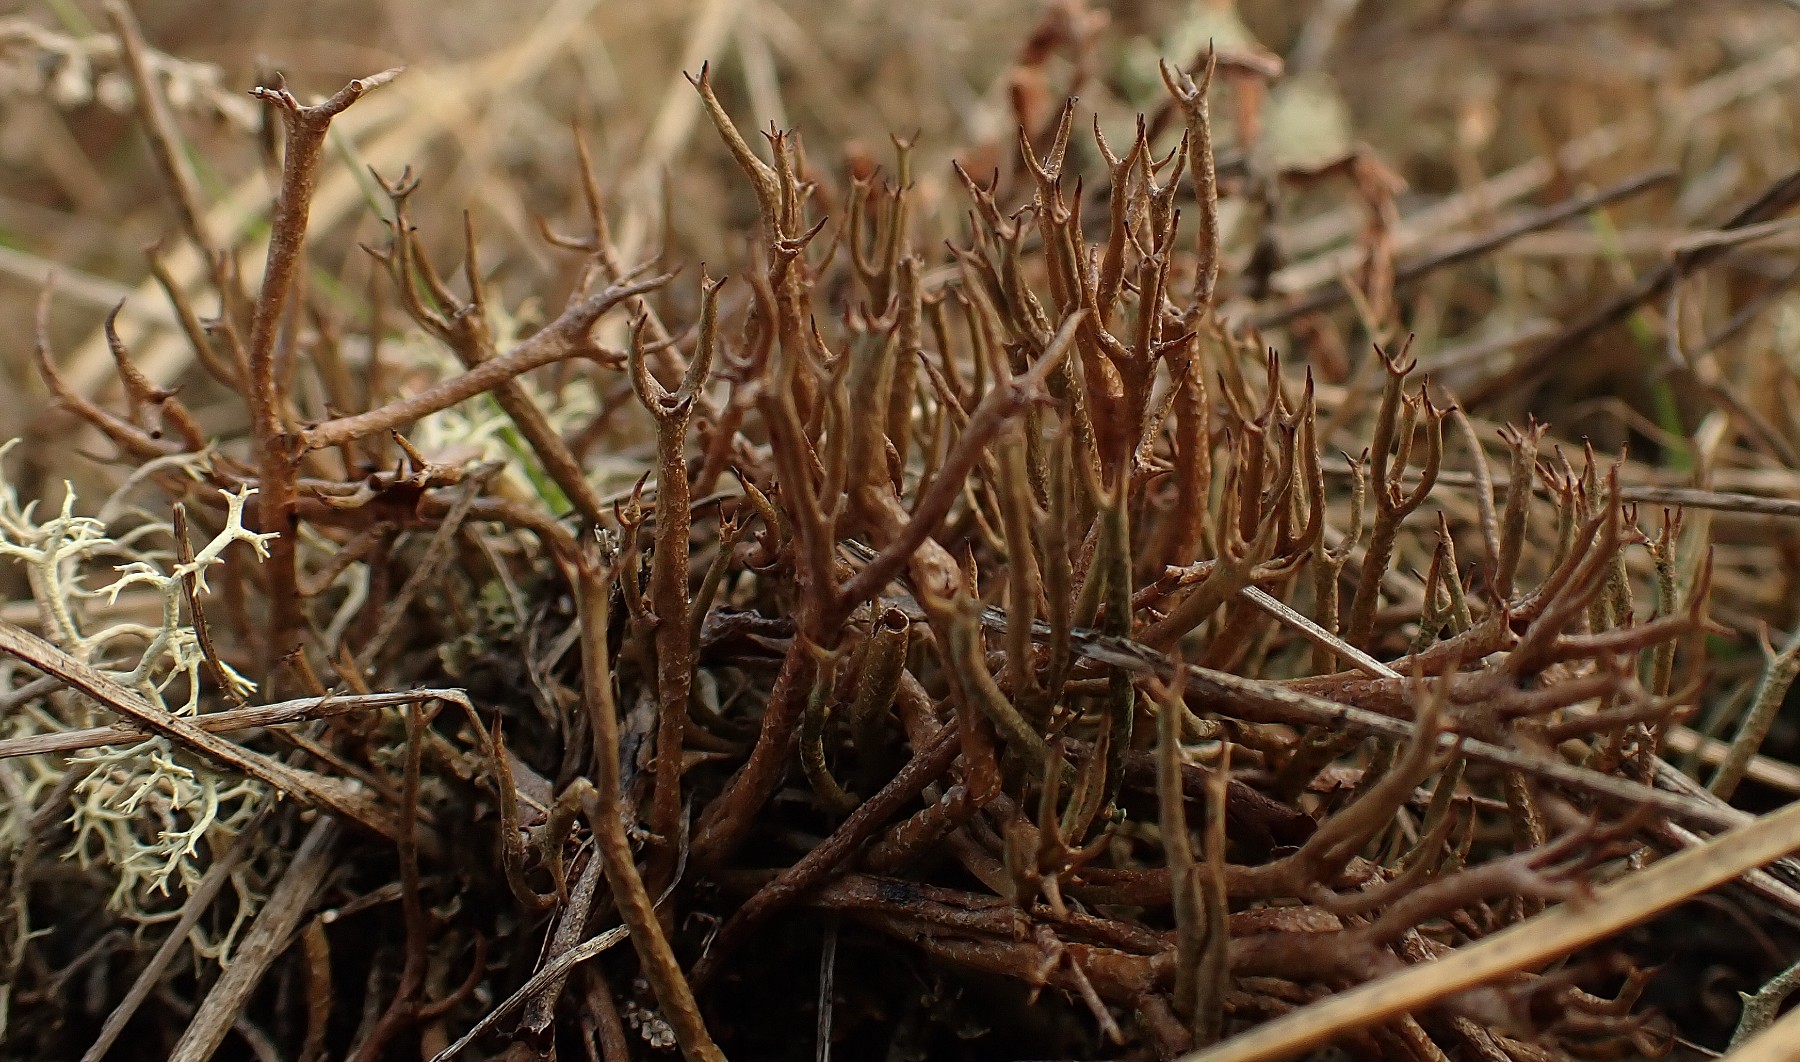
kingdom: Fungi
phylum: Ascomycota
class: Lecanoromycetes
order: Lecanorales
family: Cladoniaceae
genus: Cladonia
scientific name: Cladonia furcata
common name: kløftet bægerlav
